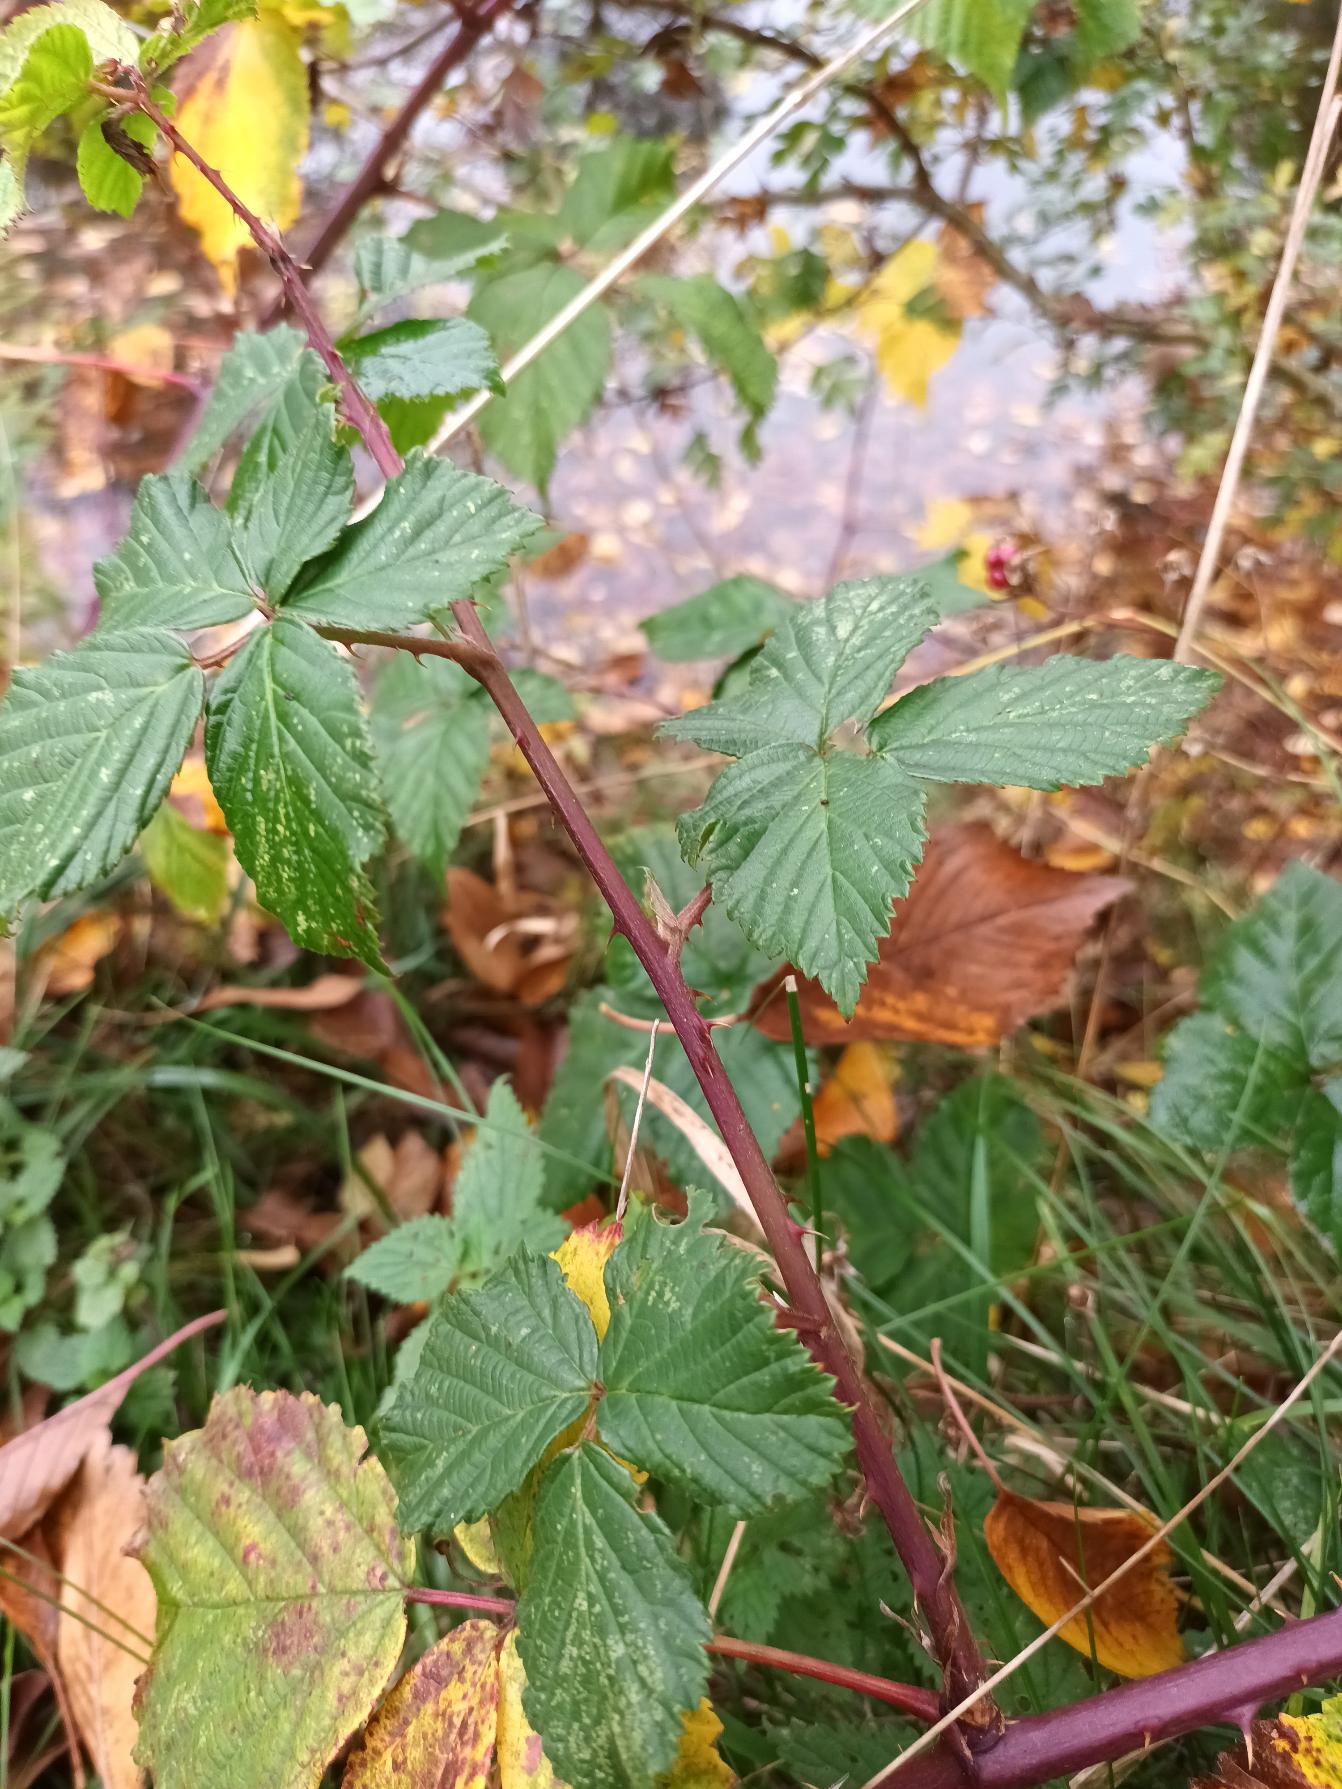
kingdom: Plantae
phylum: Tracheophyta
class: Magnoliopsida
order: Rosales
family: Rosaceae
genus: Rubus
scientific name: Rubus plicatus
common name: Almindelig brombær
